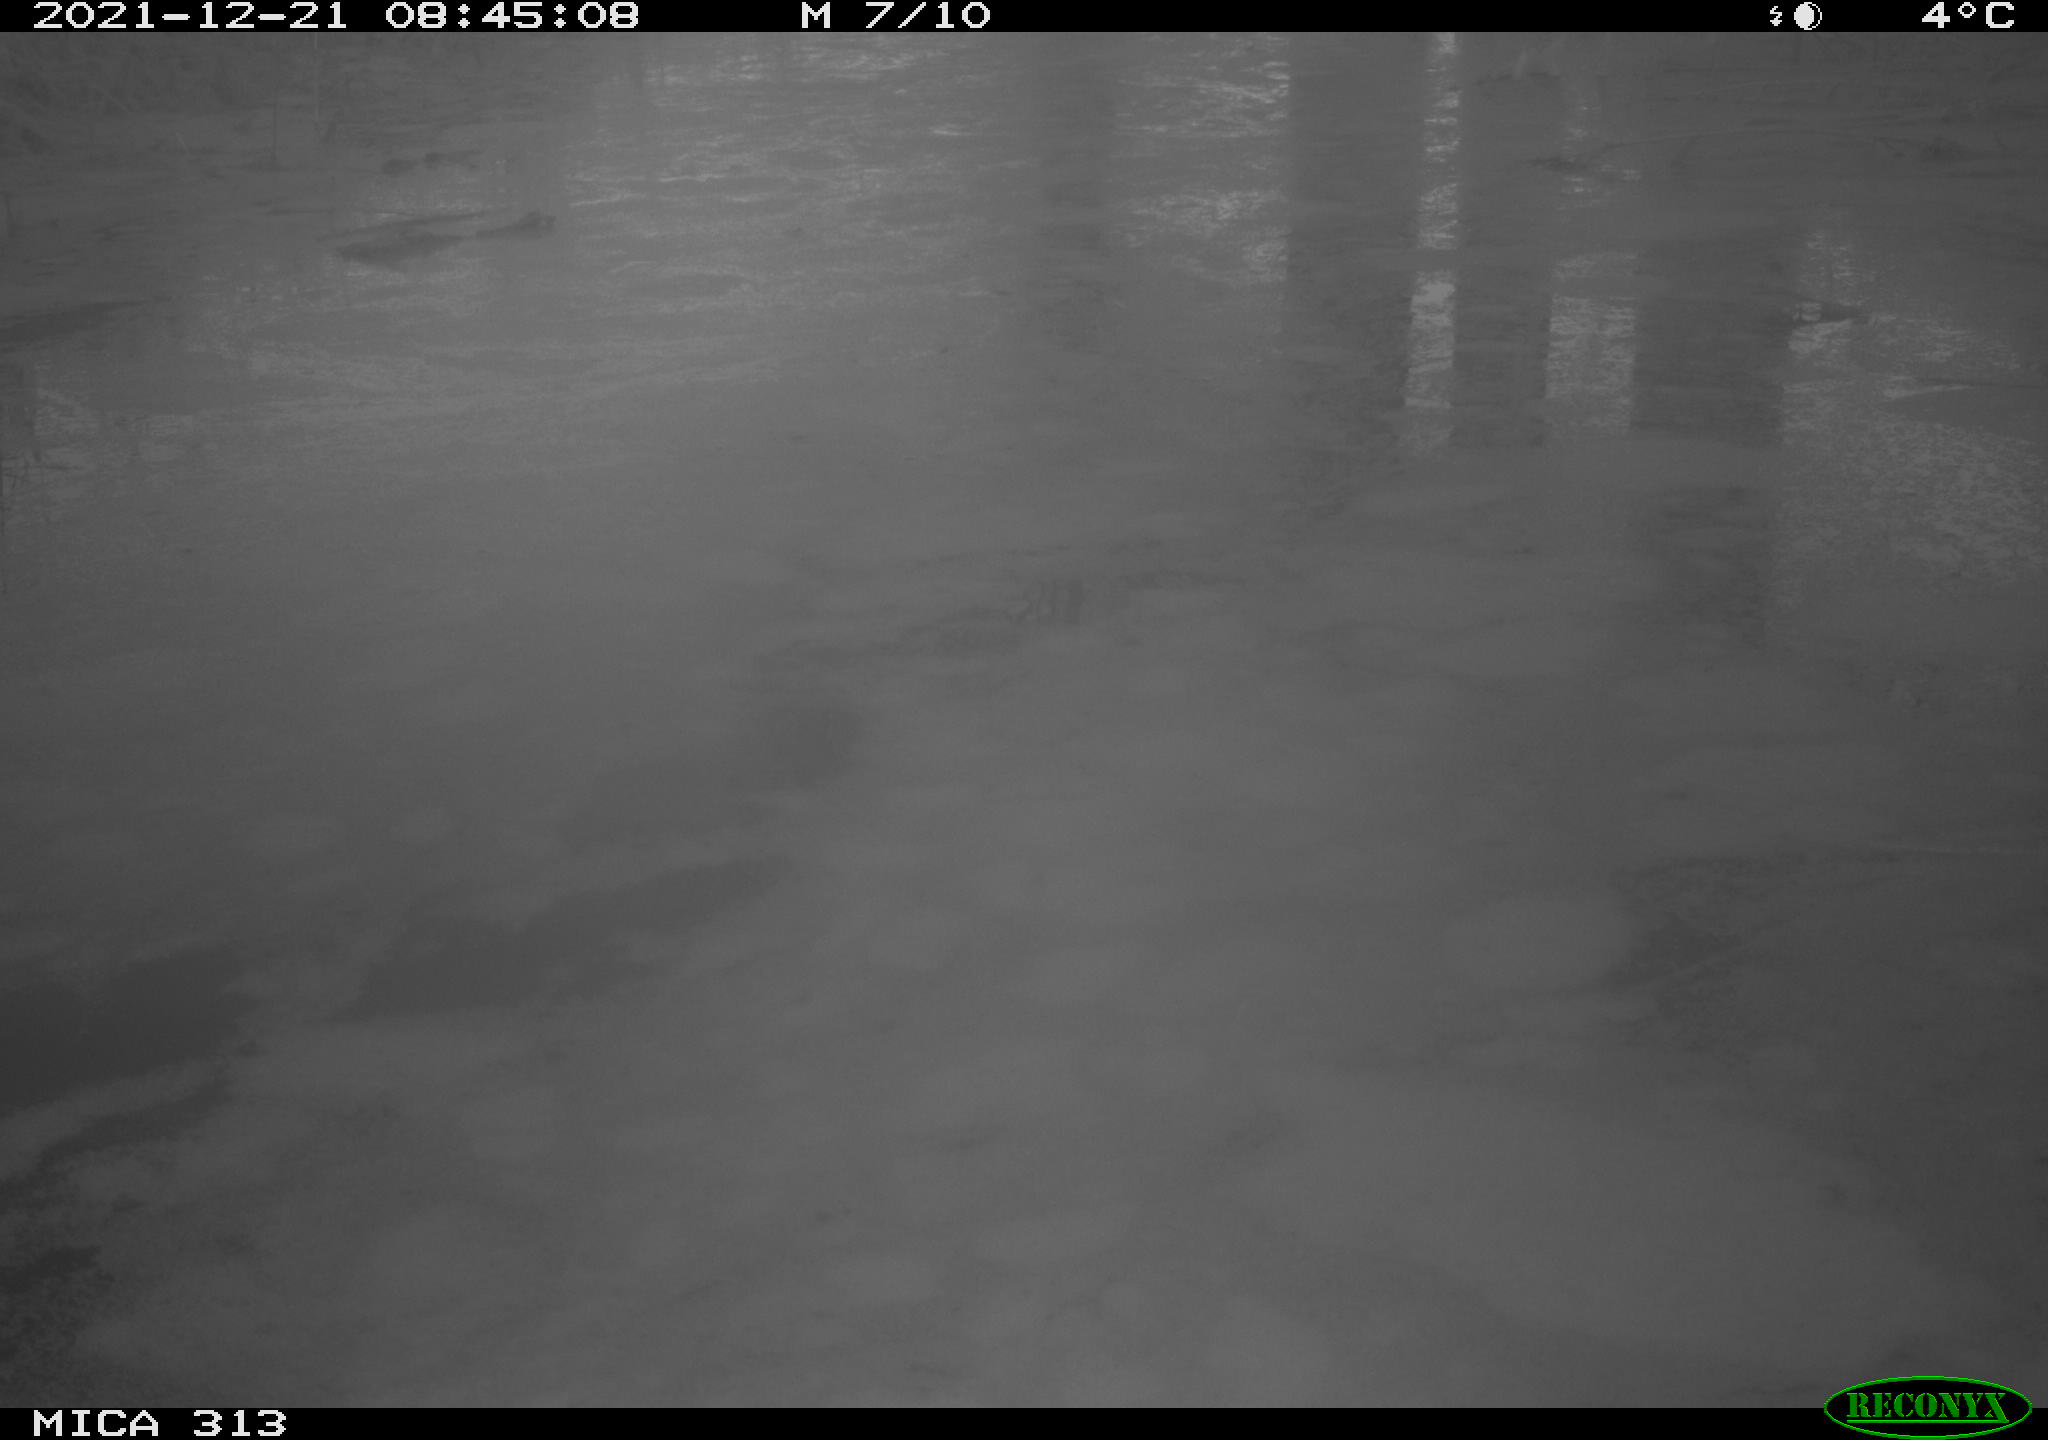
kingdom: Animalia
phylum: Chordata
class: Aves
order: Gruiformes
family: Rallidae
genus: Fulica
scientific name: Fulica atra
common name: Eurasian coot
